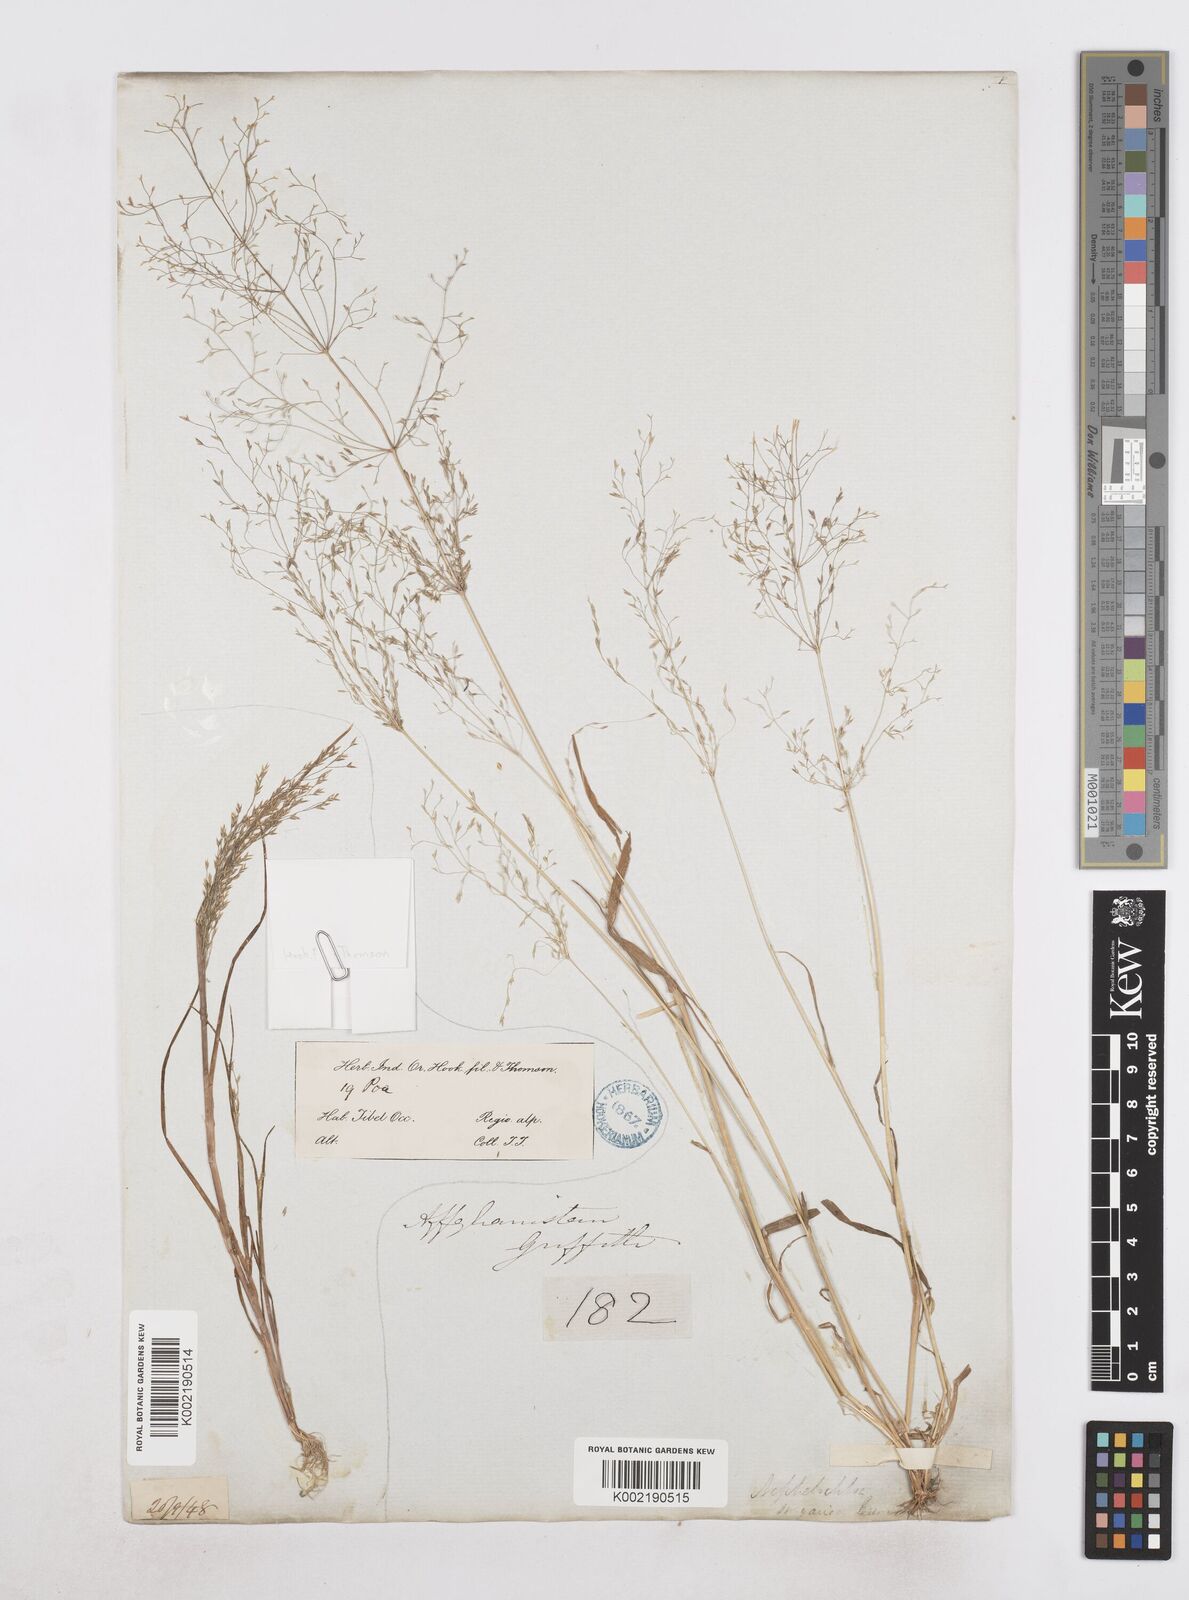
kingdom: Plantae
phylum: Tracheophyta
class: Liliopsida
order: Poales
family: Poaceae
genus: Poa
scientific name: Poa diaphora
